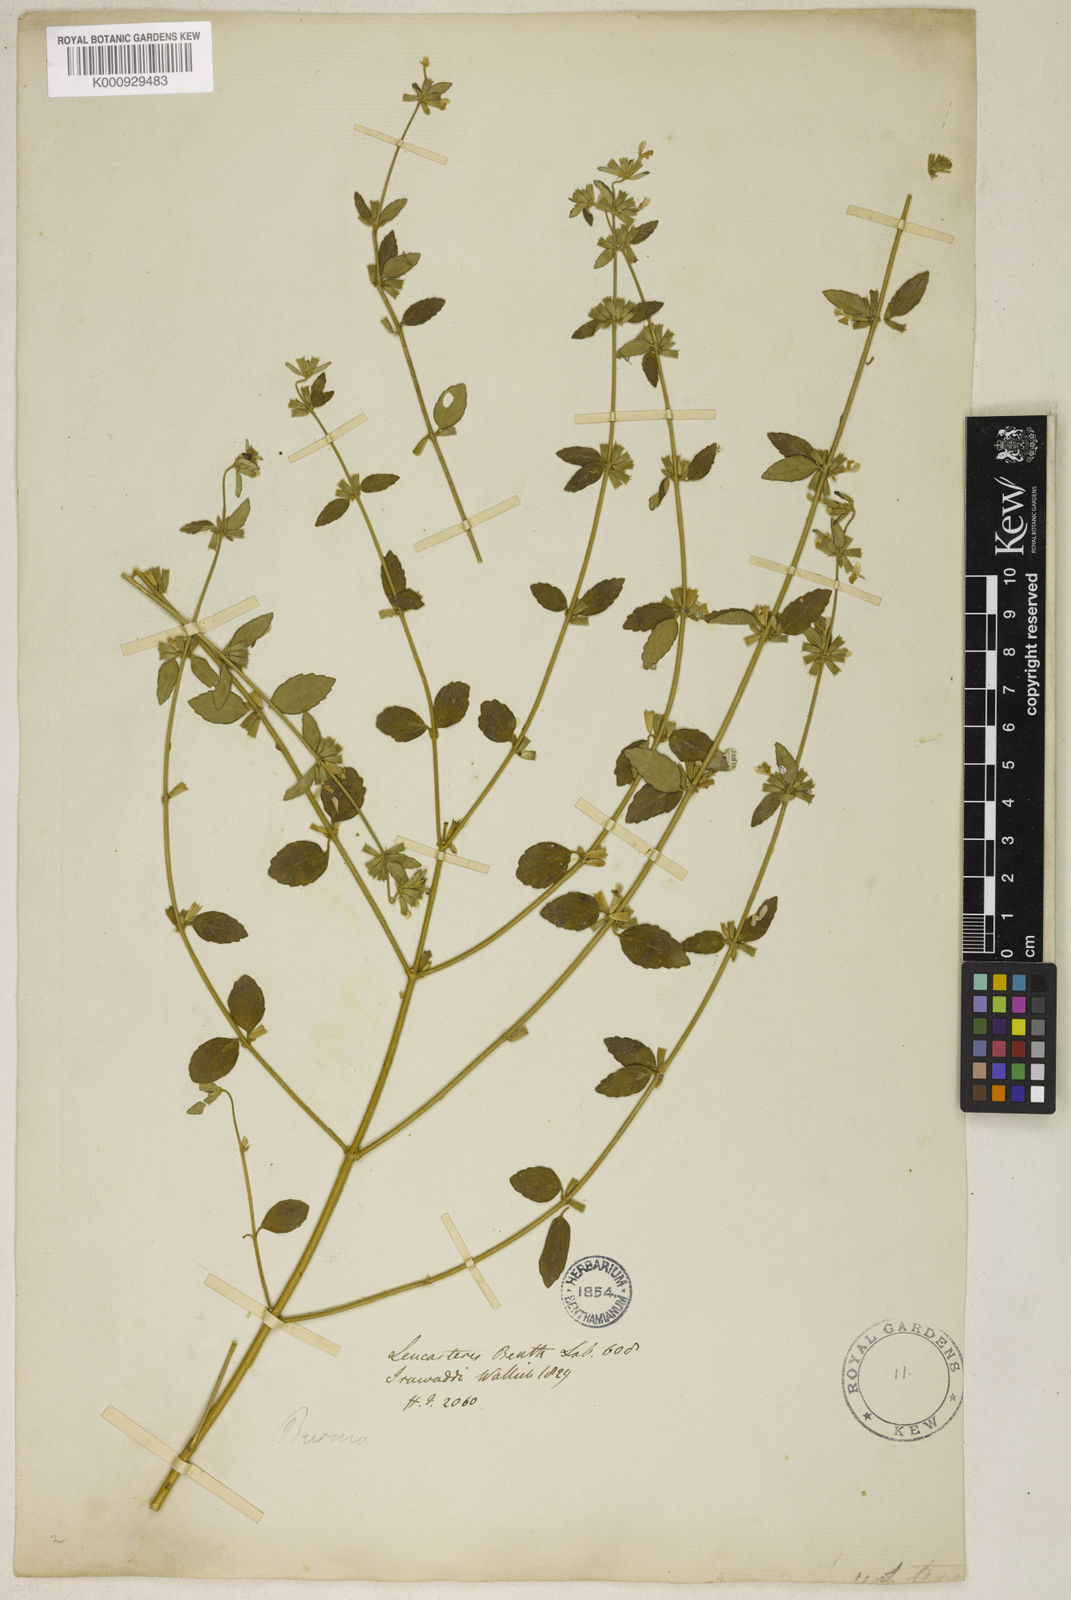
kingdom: Plantae
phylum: Tracheophyta
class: Magnoliopsida
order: Lamiales
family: Lamiaceae
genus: Leucas
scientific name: Leucas teres
